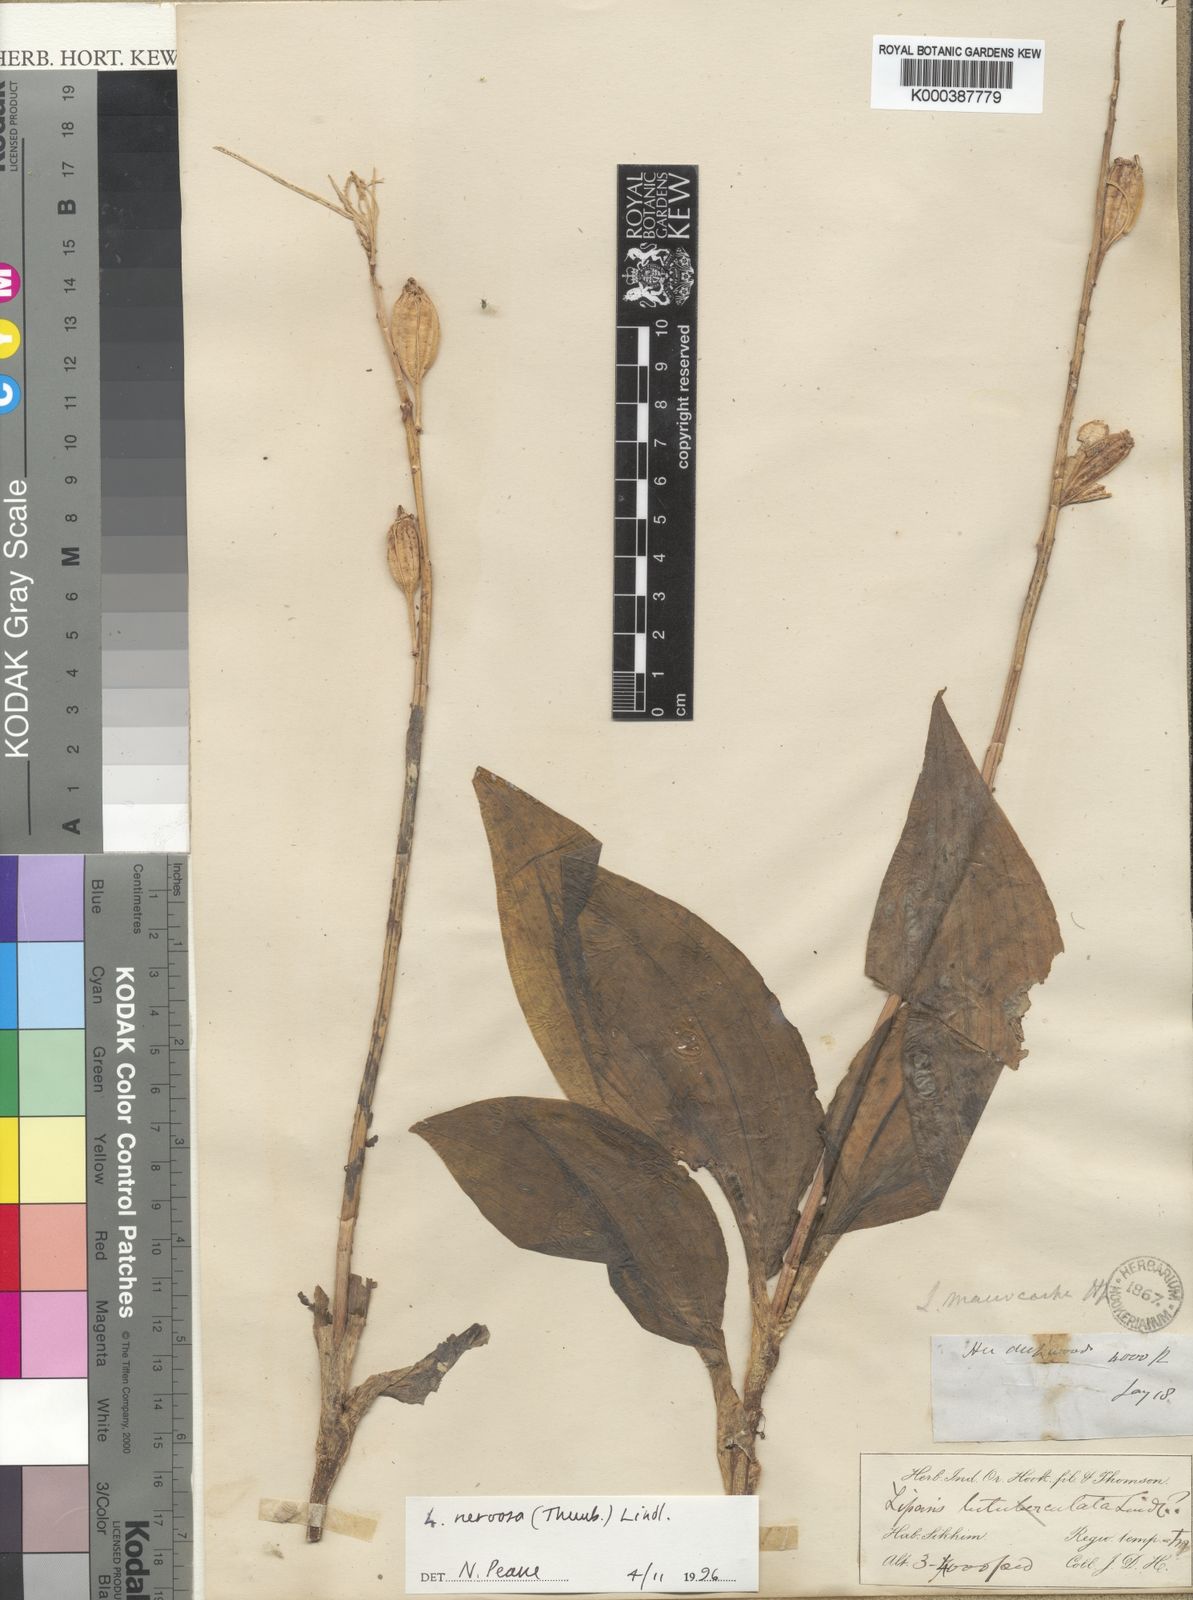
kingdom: Plantae
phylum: Tracheophyta
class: Liliopsida
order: Asparagales
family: Orchidaceae
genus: Liparis
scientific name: Liparis nervosa
